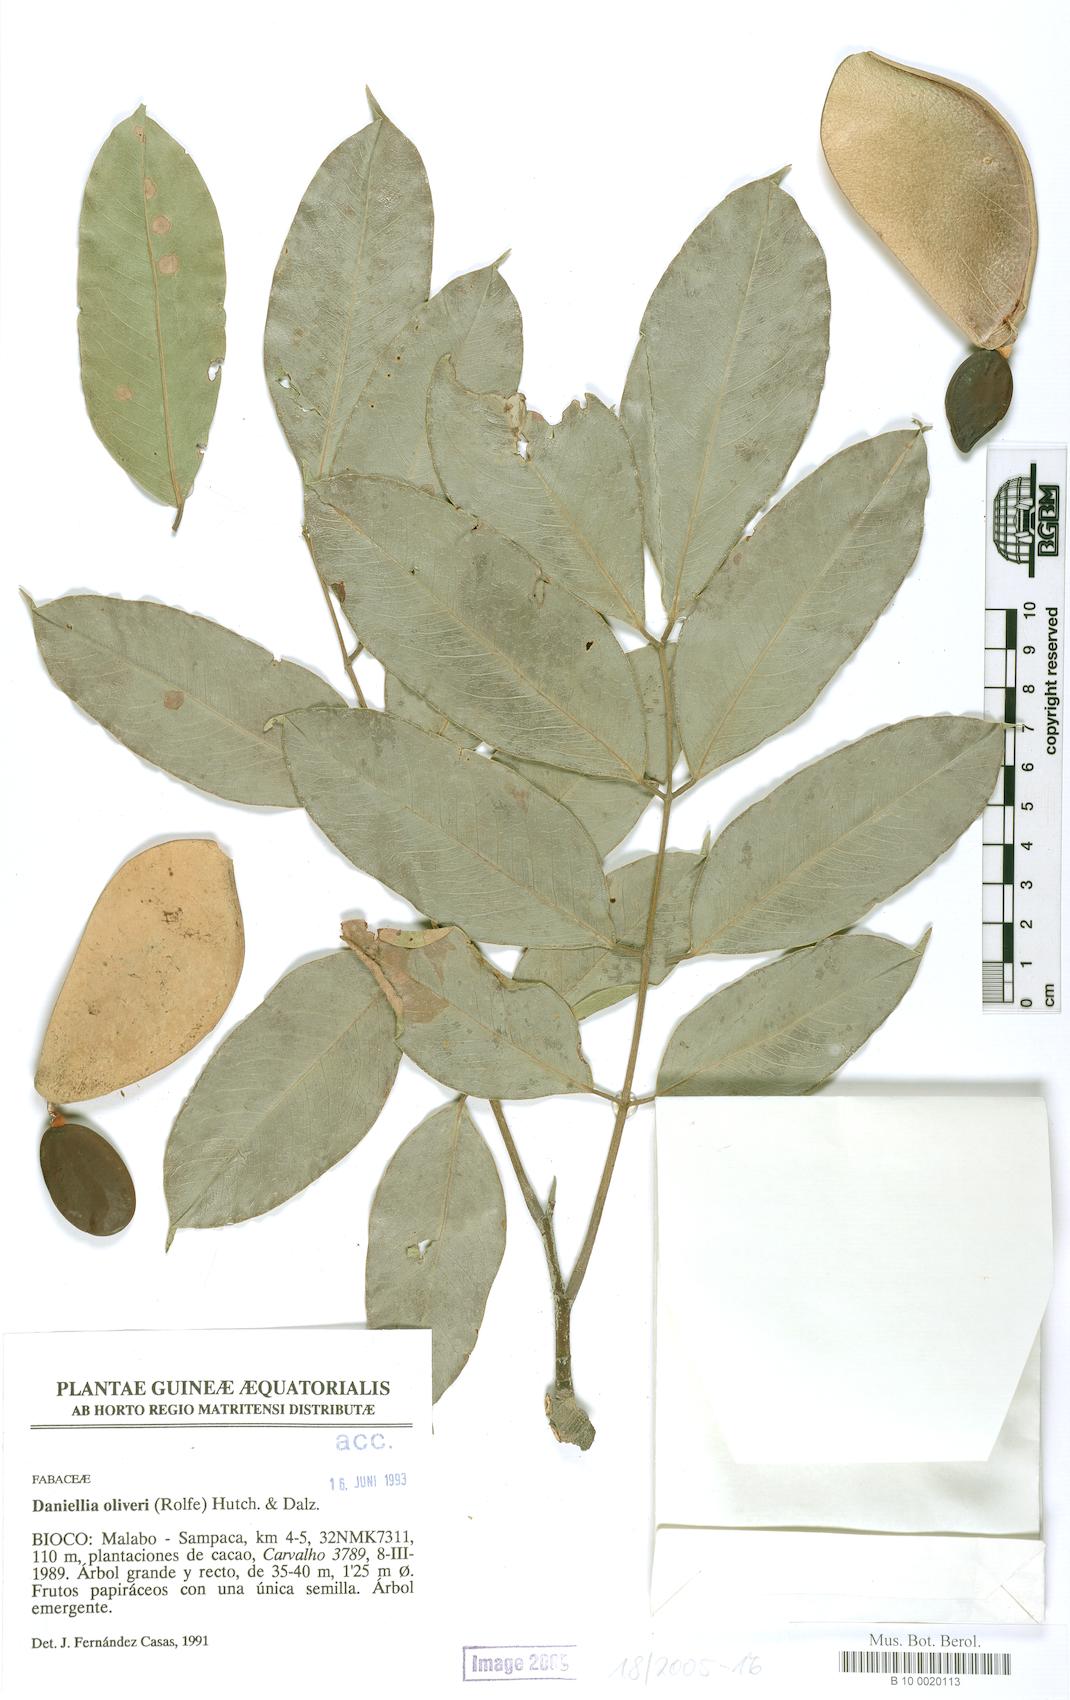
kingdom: Plantae
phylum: Tracheophyta
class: Magnoliopsida
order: Fabales
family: Fabaceae
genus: Daniellia
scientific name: Daniellia ogea
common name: Accra copal
